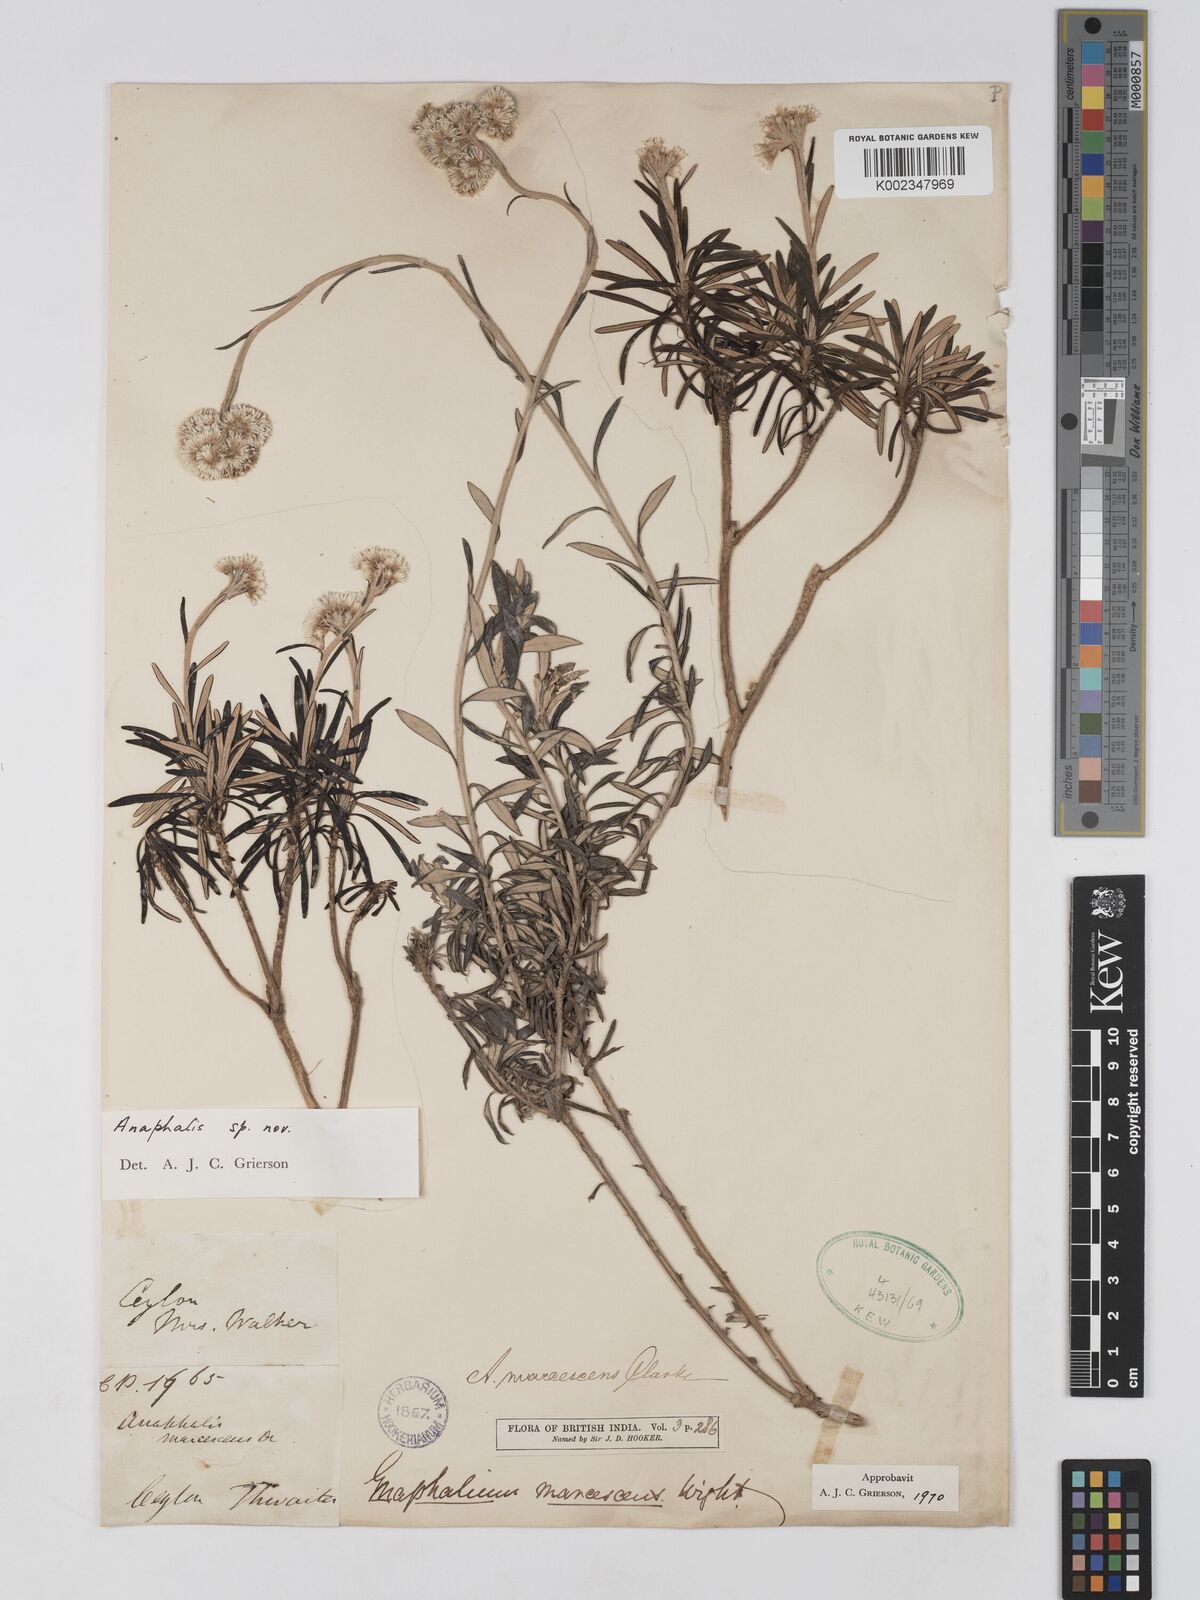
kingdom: Plantae
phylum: Tracheophyta
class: Magnoliopsida
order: Asterales
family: Asteraceae
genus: Anaphalis
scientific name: Anaphalis
